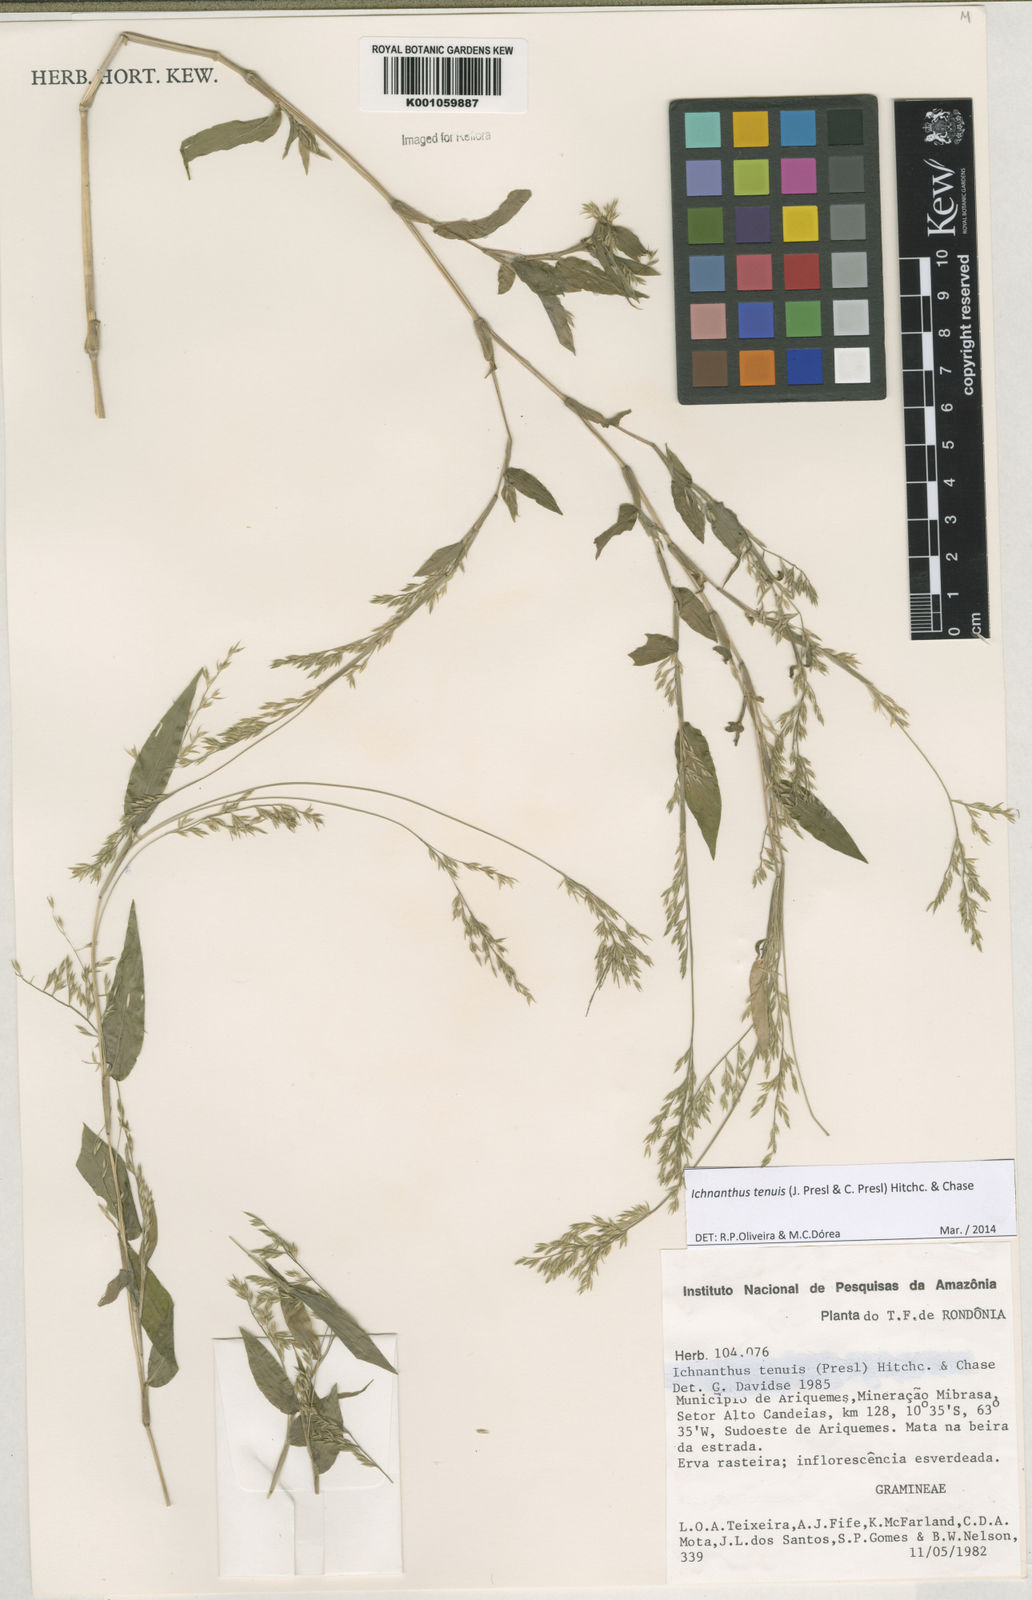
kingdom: Plantae
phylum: Tracheophyta
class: Liliopsida
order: Poales
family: Poaceae
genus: Ichnanthus
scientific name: Ichnanthus tenuis
